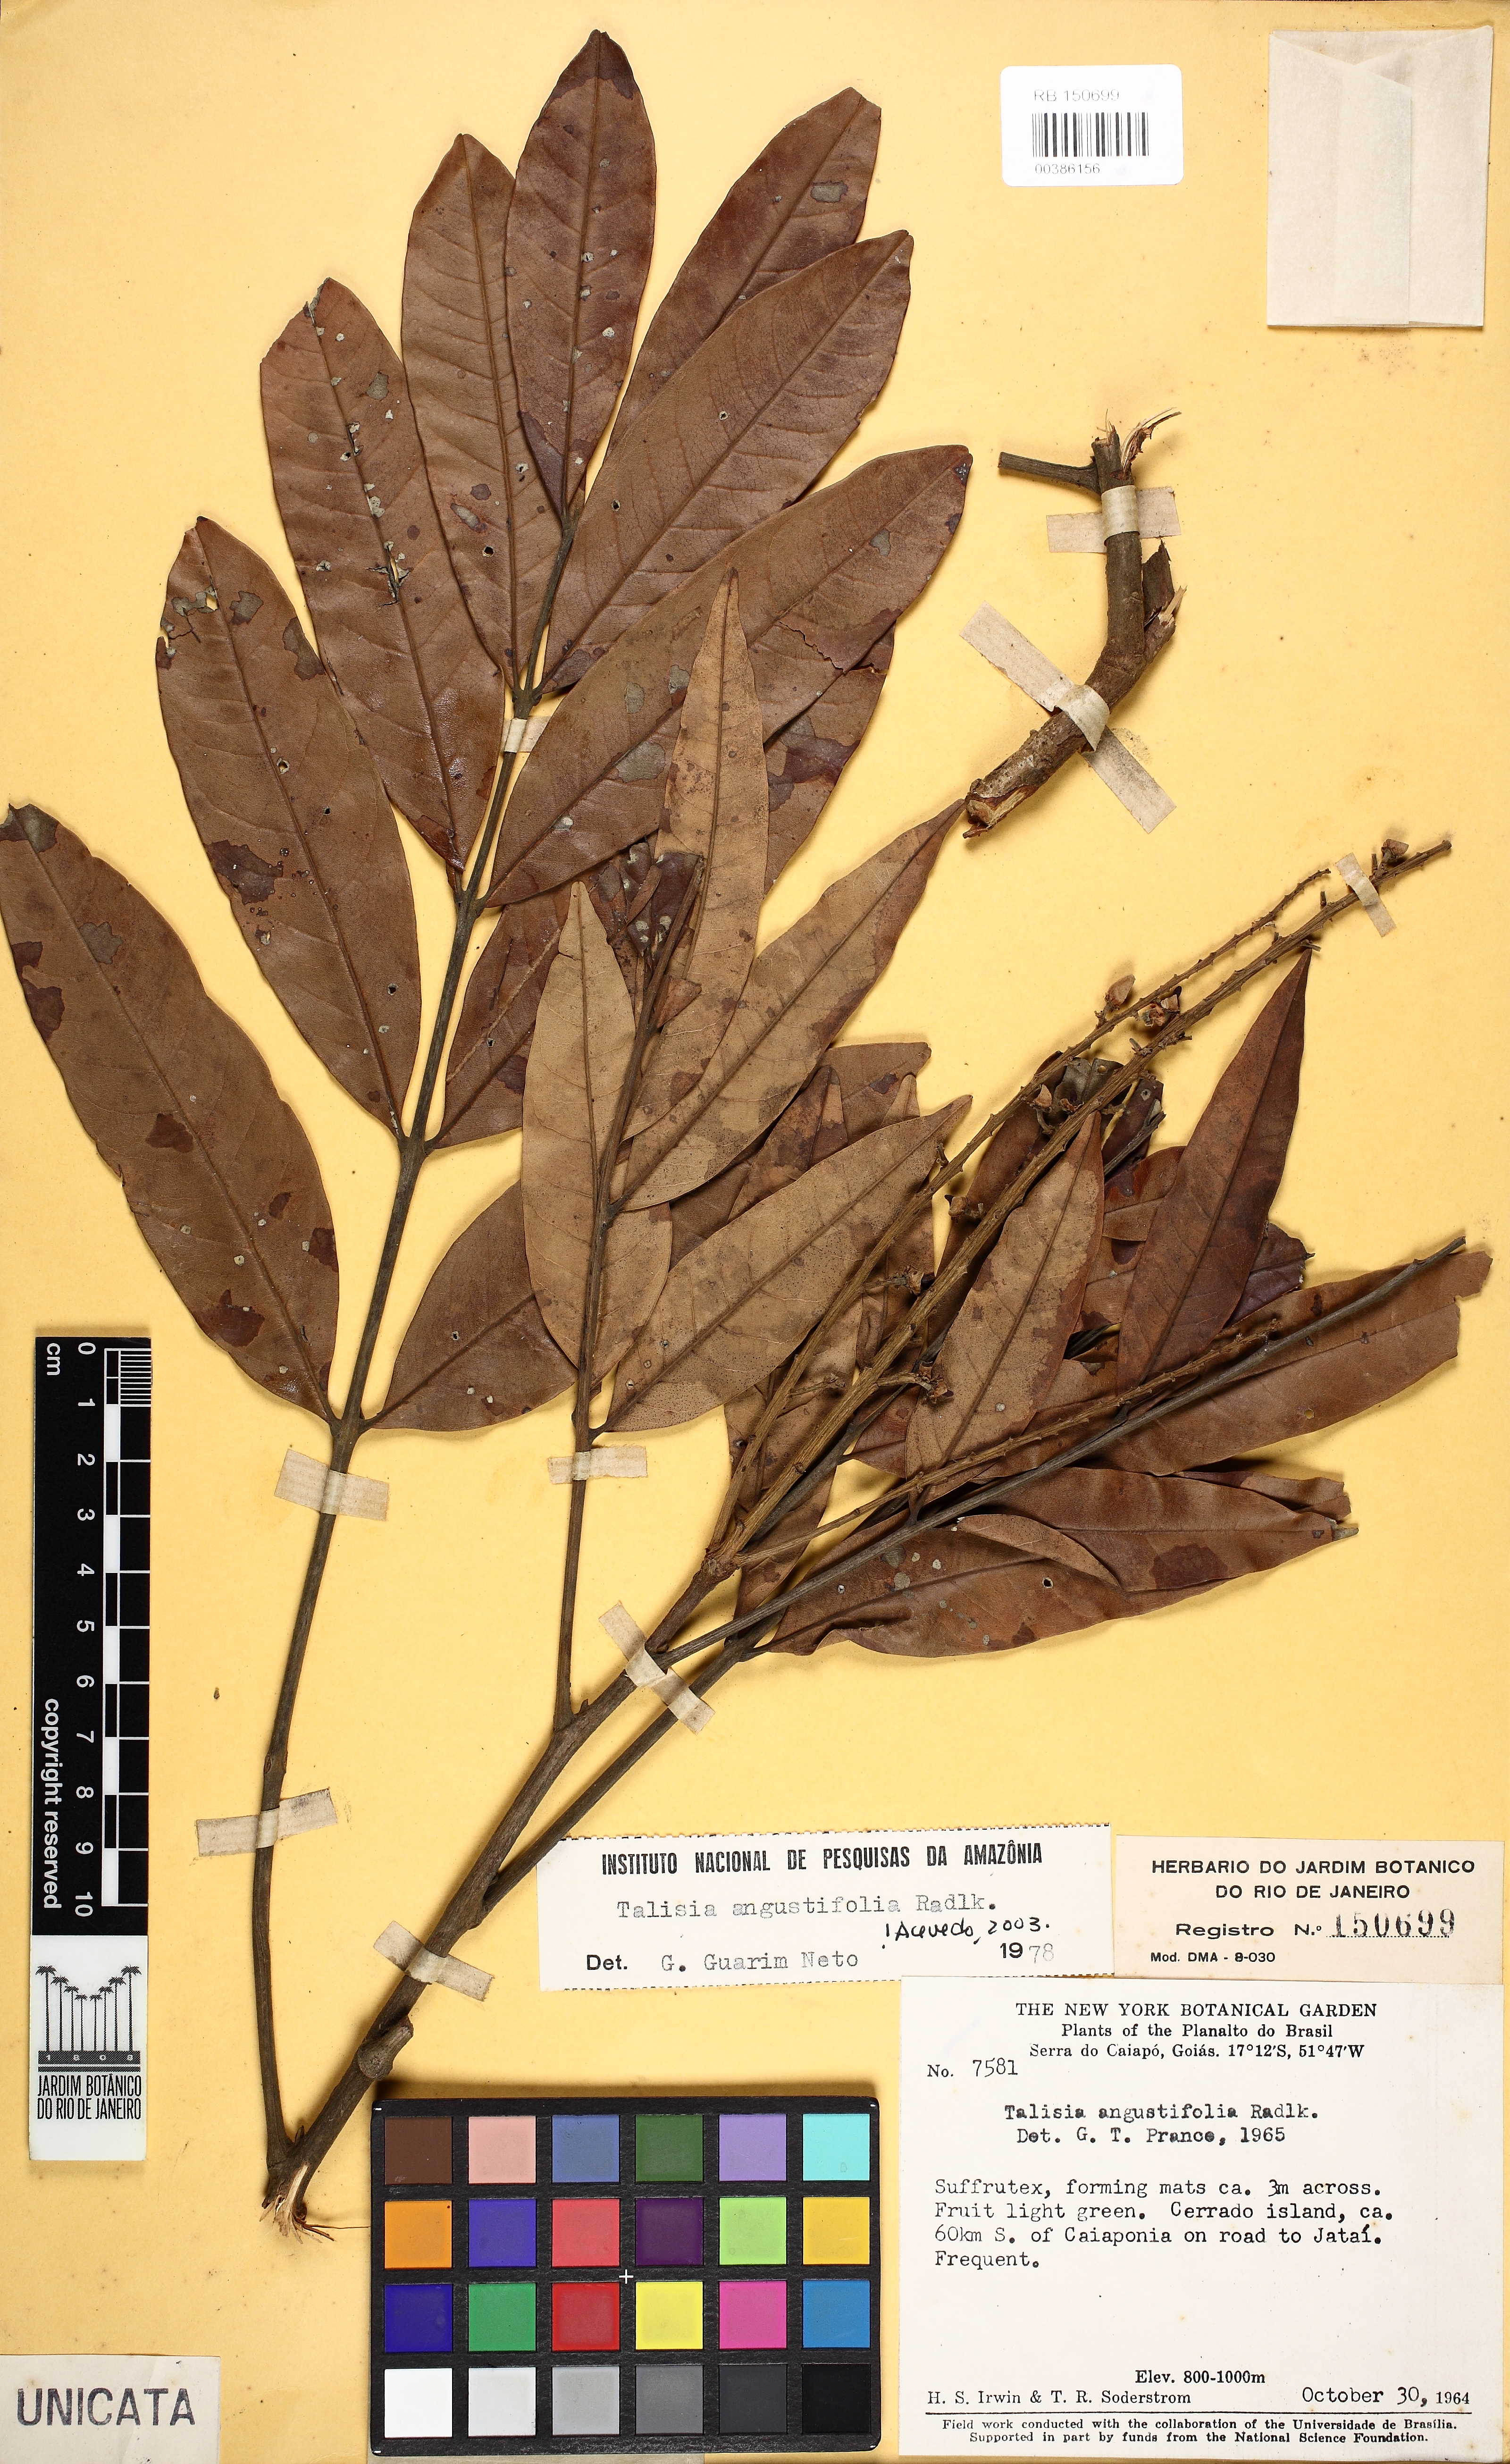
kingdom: Plantae
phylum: Tracheophyta
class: Magnoliopsida
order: Sapindales
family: Sapindaceae
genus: Talisia
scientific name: Talisia angustifolia
